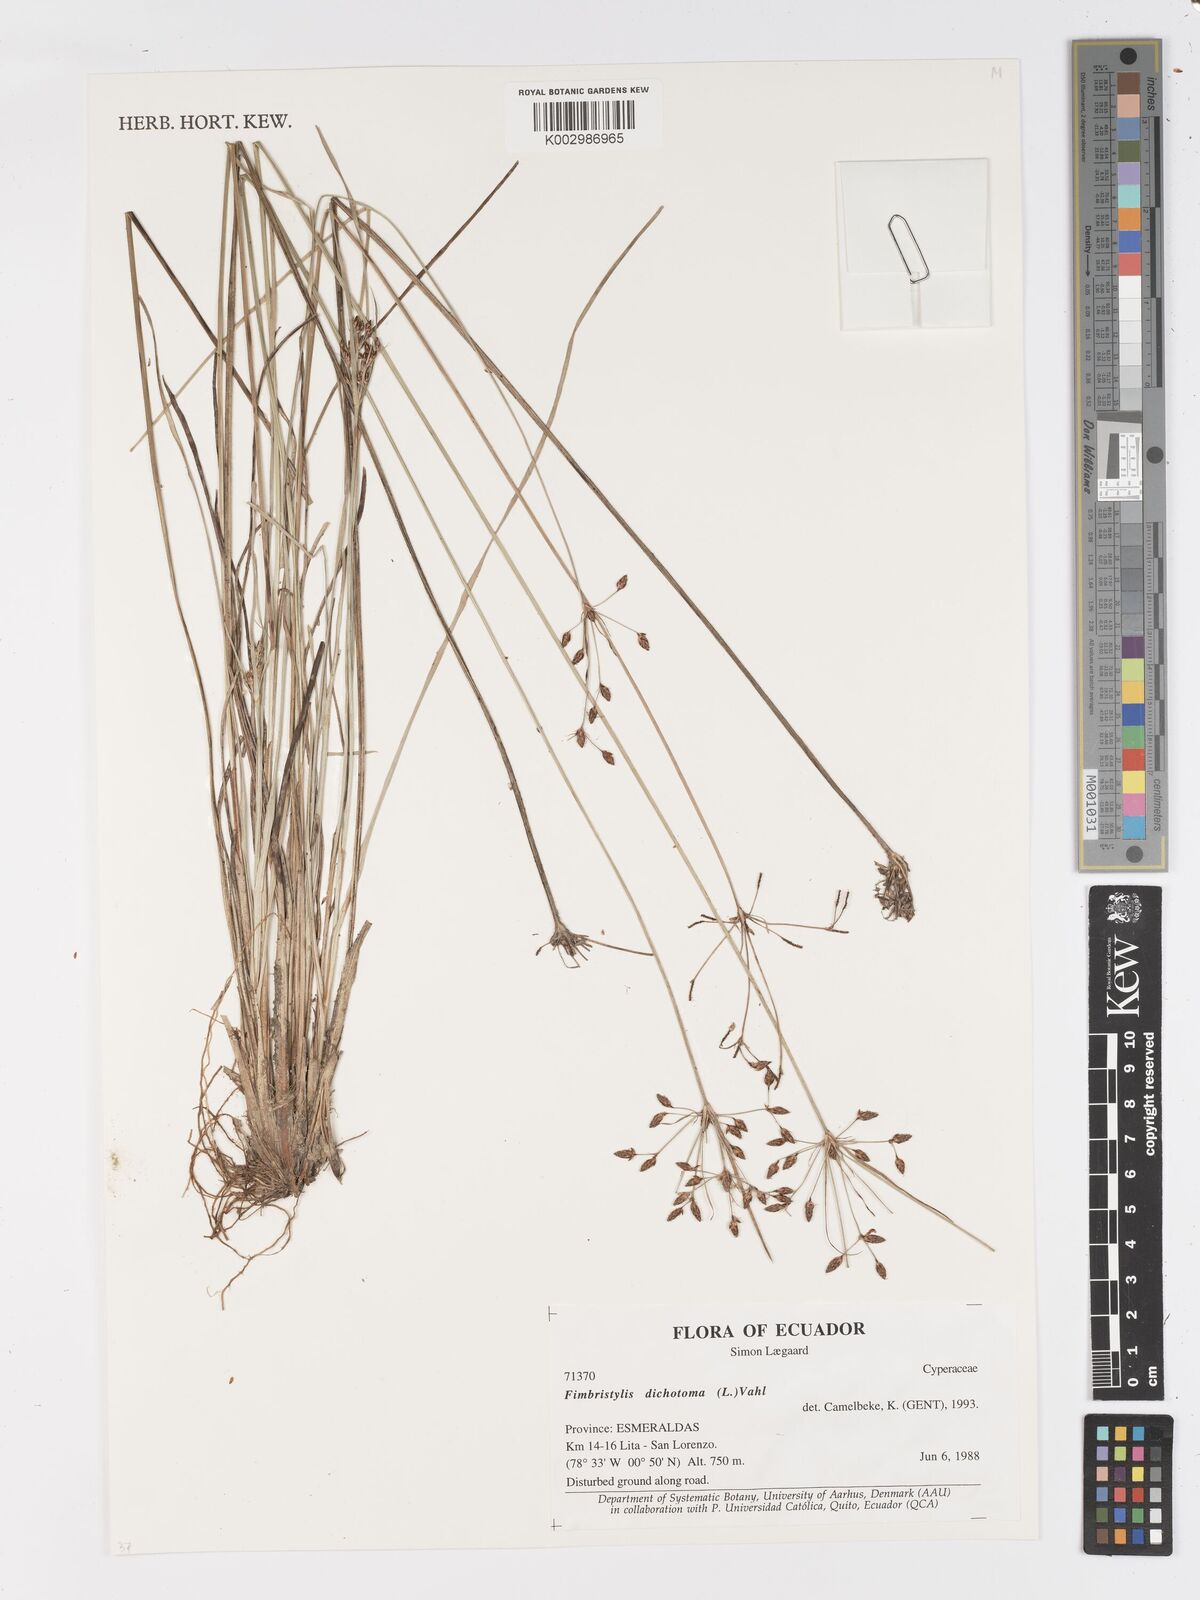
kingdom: Plantae
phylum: Tracheophyta
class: Liliopsida
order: Poales
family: Cyperaceae
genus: Fimbristylis
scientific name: Fimbristylis dichotoma
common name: Forked fimbry
